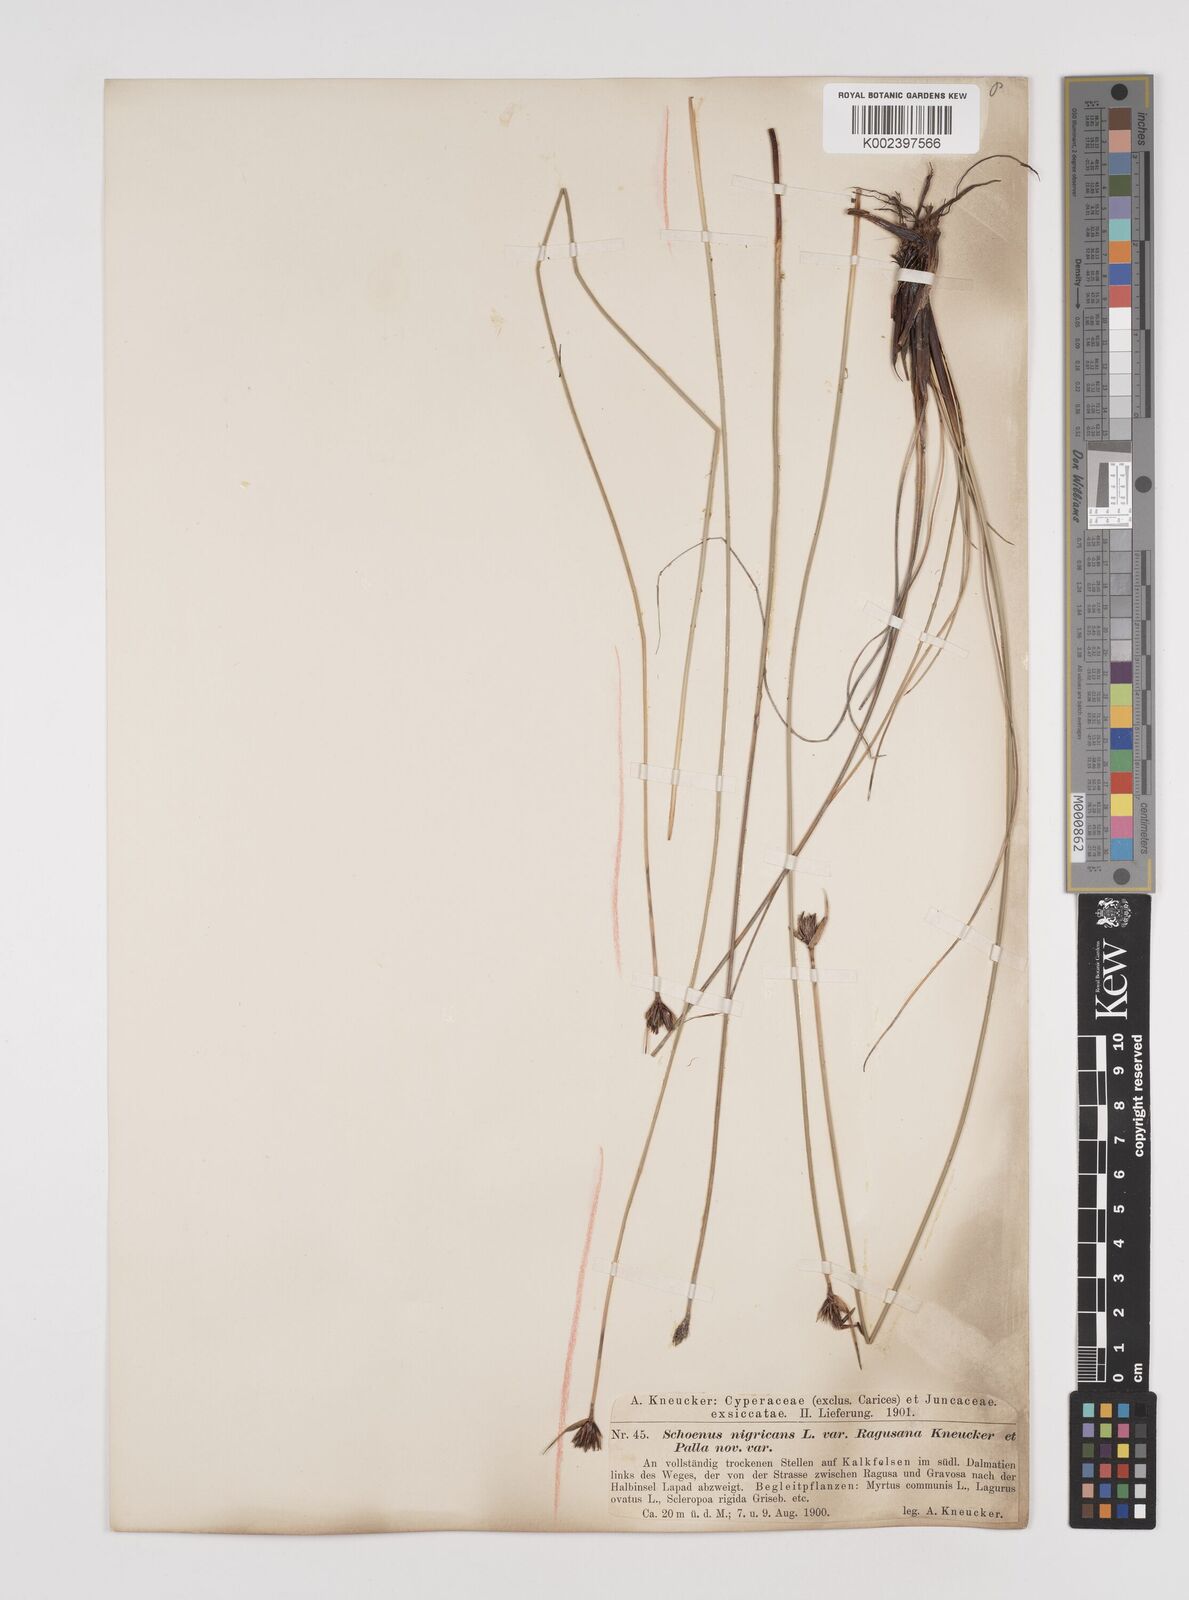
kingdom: Plantae
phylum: Tracheophyta
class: Liliopsida
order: Poales
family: Cyperaceae
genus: Schoenus
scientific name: Schoenus nigricans
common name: Black bog-rush
